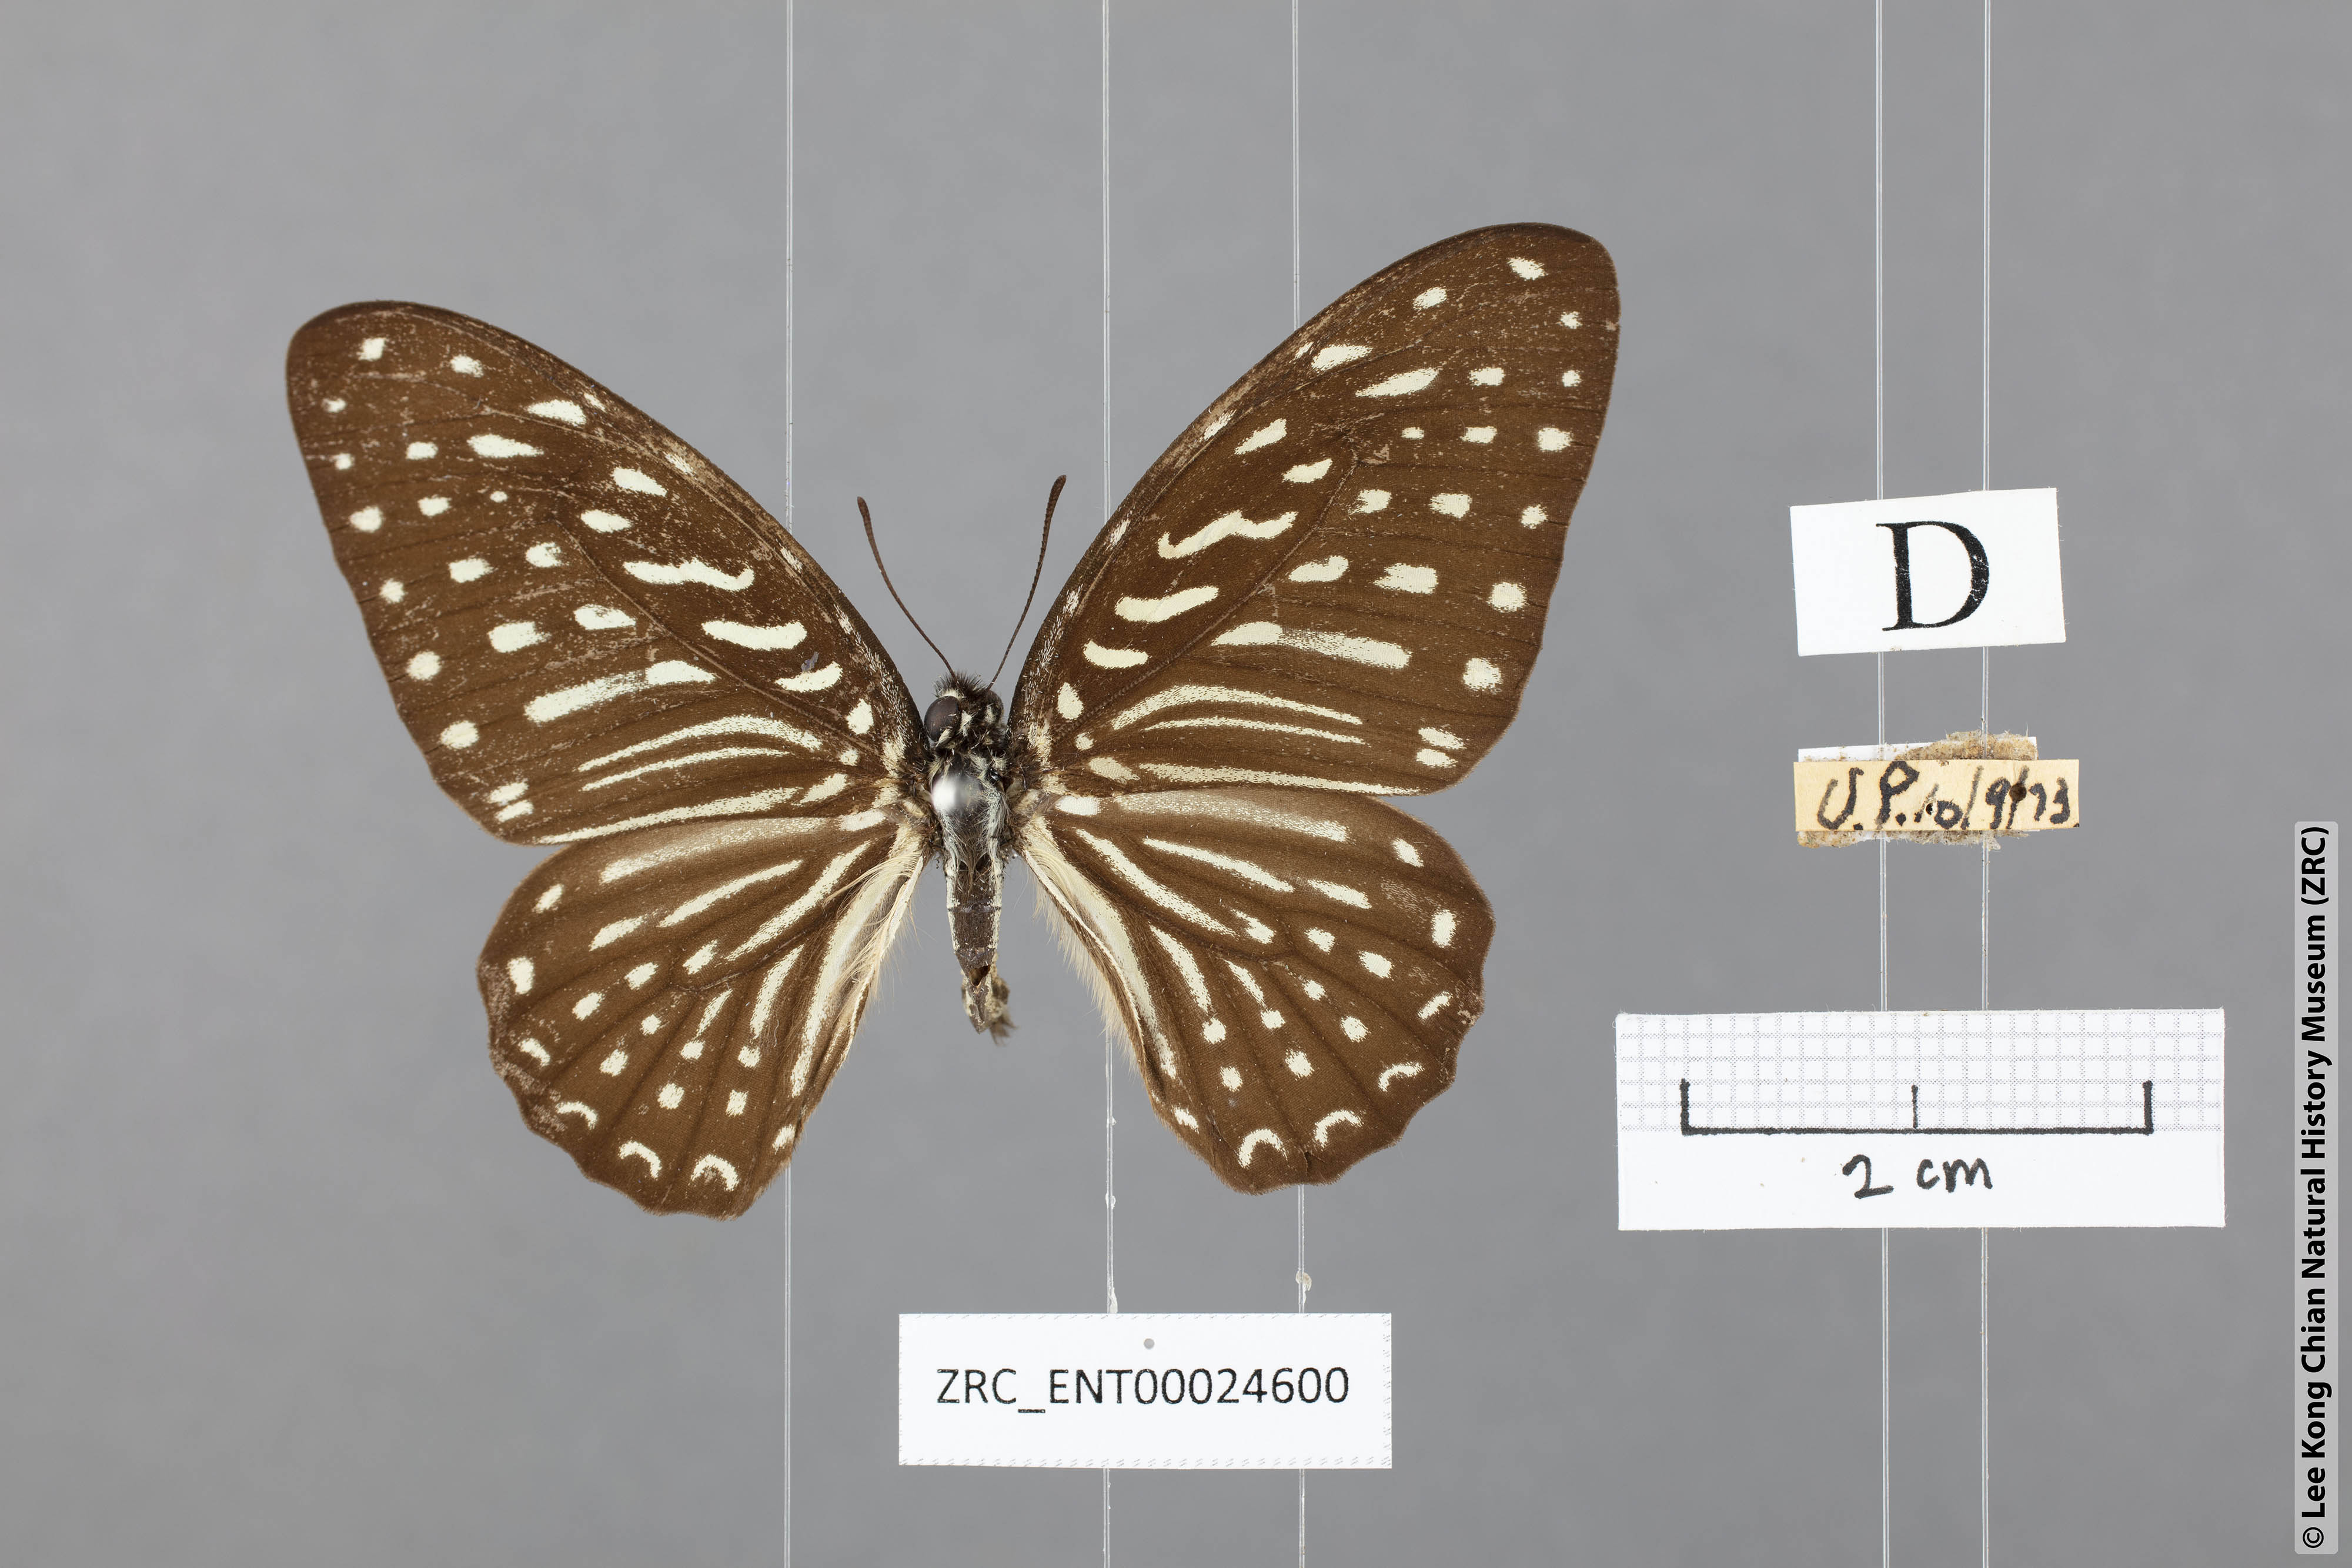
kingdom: Animalia
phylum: Arthropoda
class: Insecta
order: Lepidoptera
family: Papilionidae
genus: Graphium
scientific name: Graphium megarus
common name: Spotted zebra
